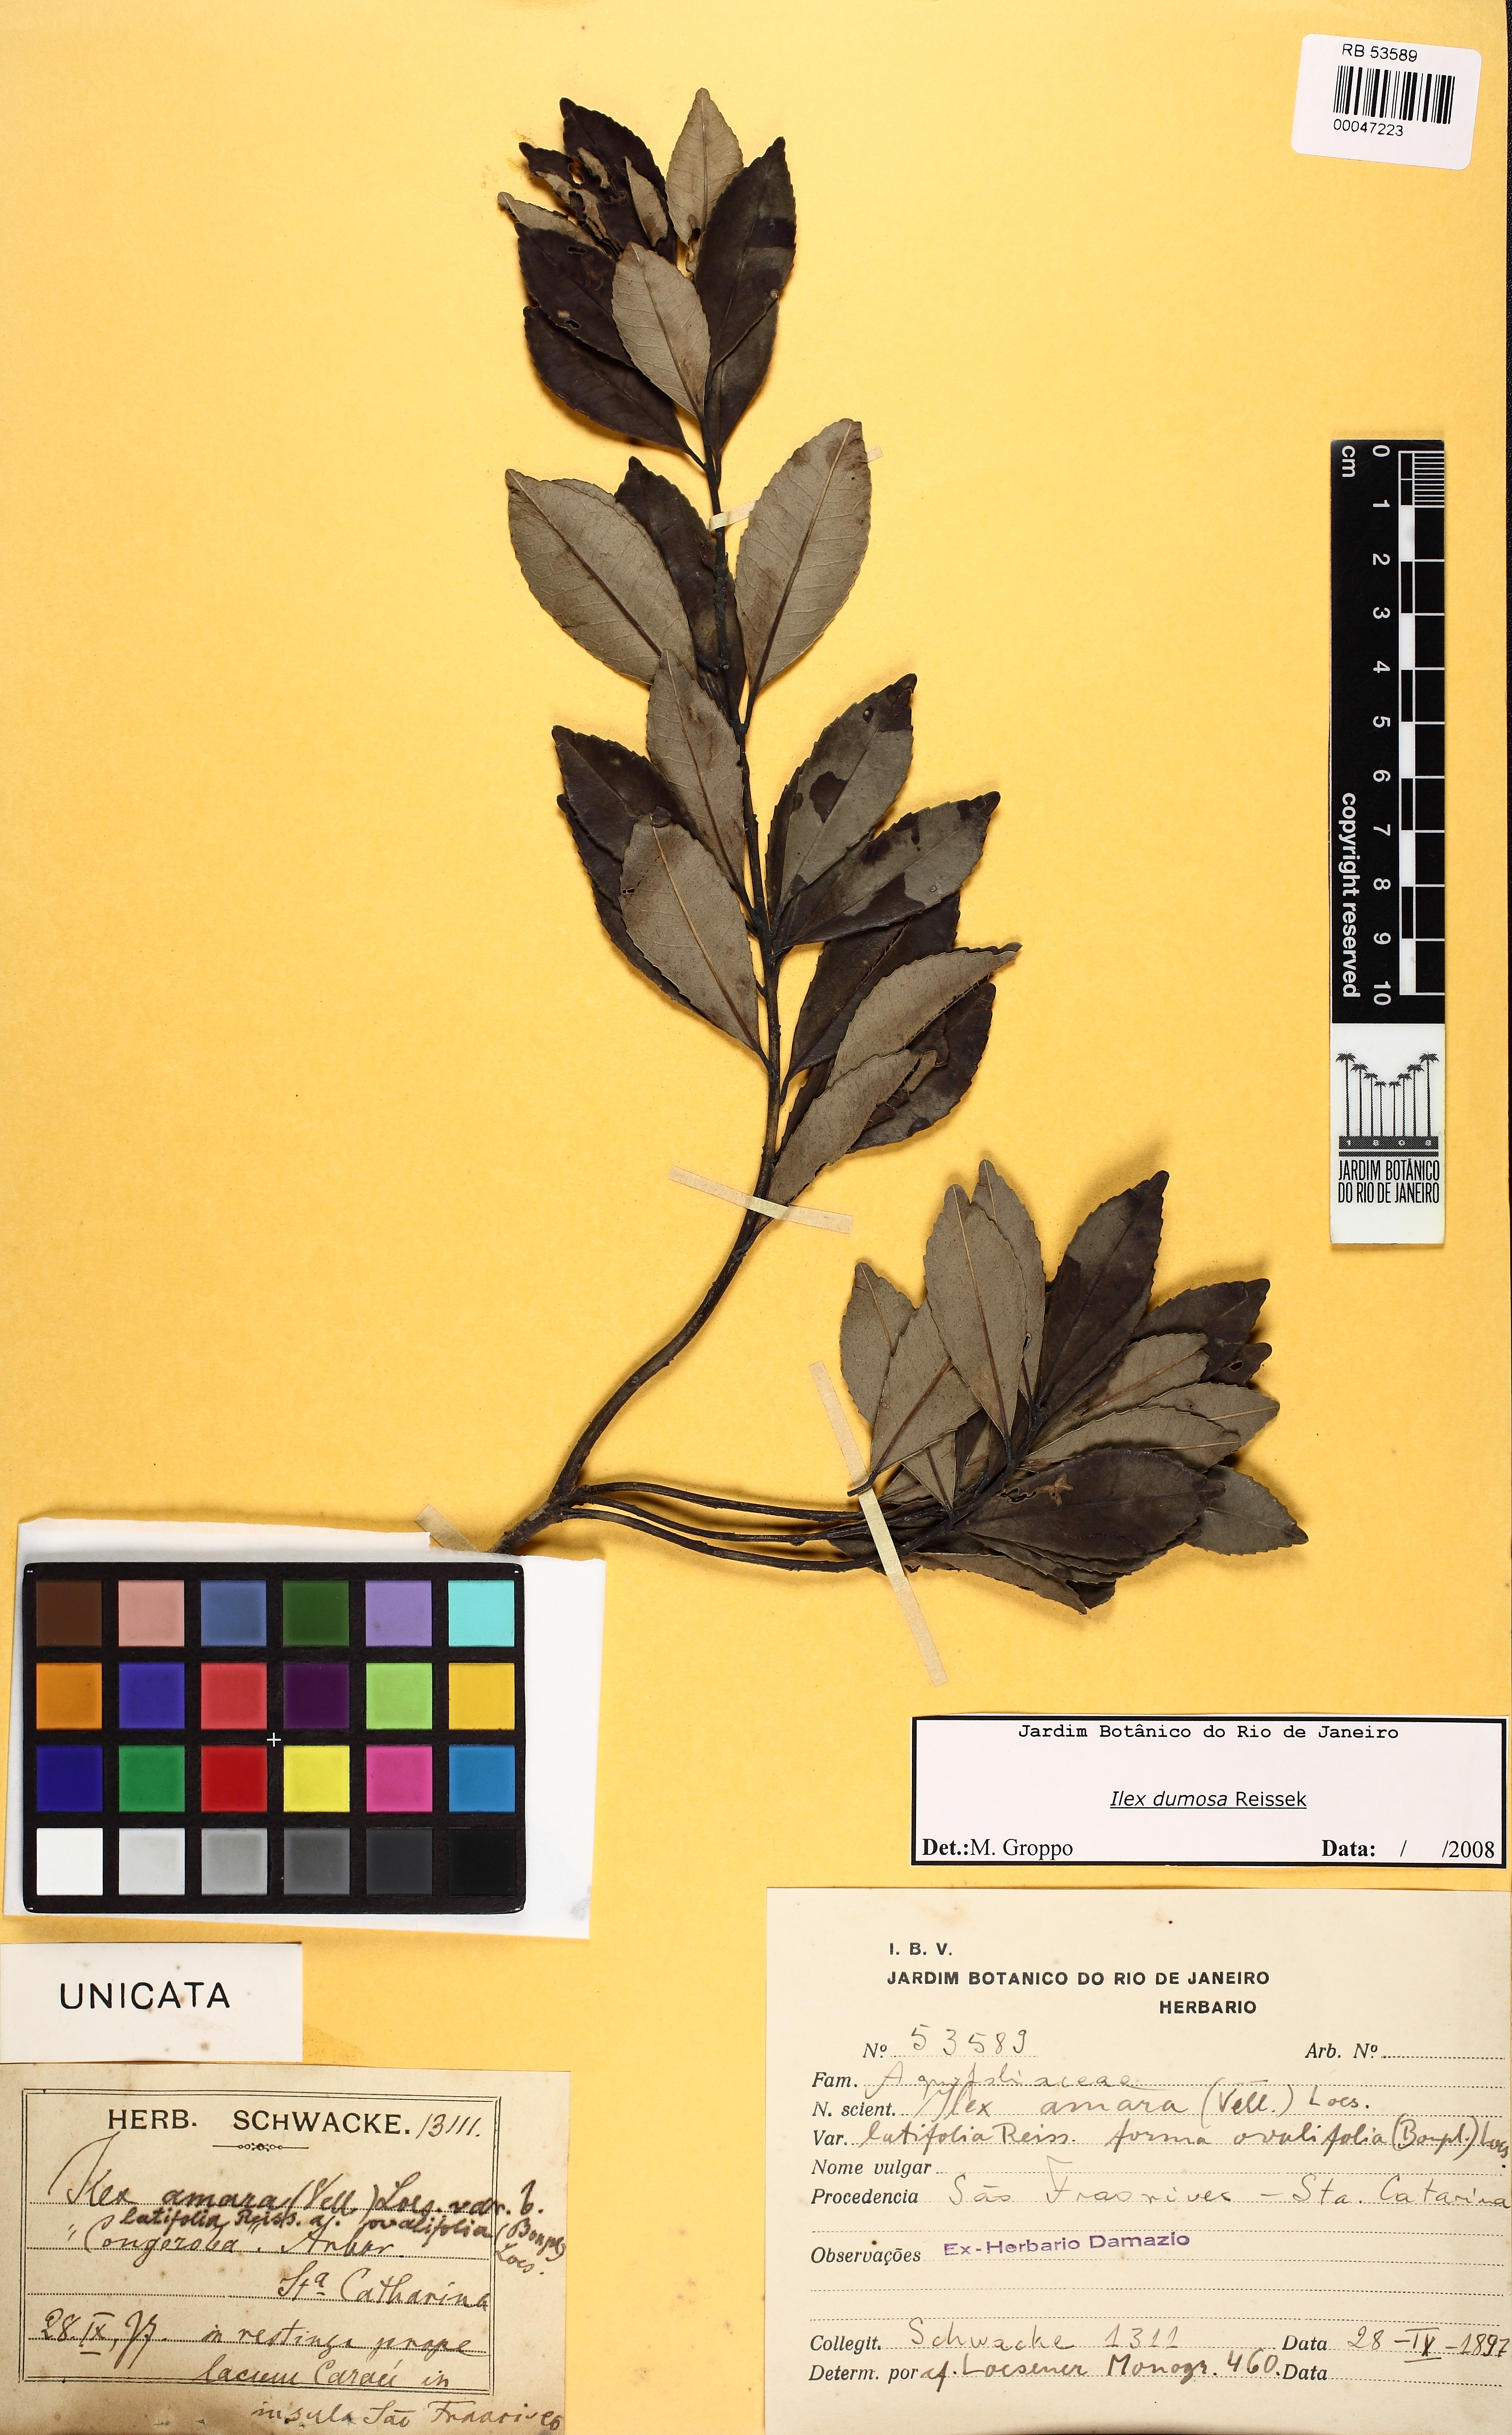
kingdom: Plantae
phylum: Tracheophyta
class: Magnoliopsida
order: Aquifoliales
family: Aquifoliaceae
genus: Ilex
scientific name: Ilex dumosa
